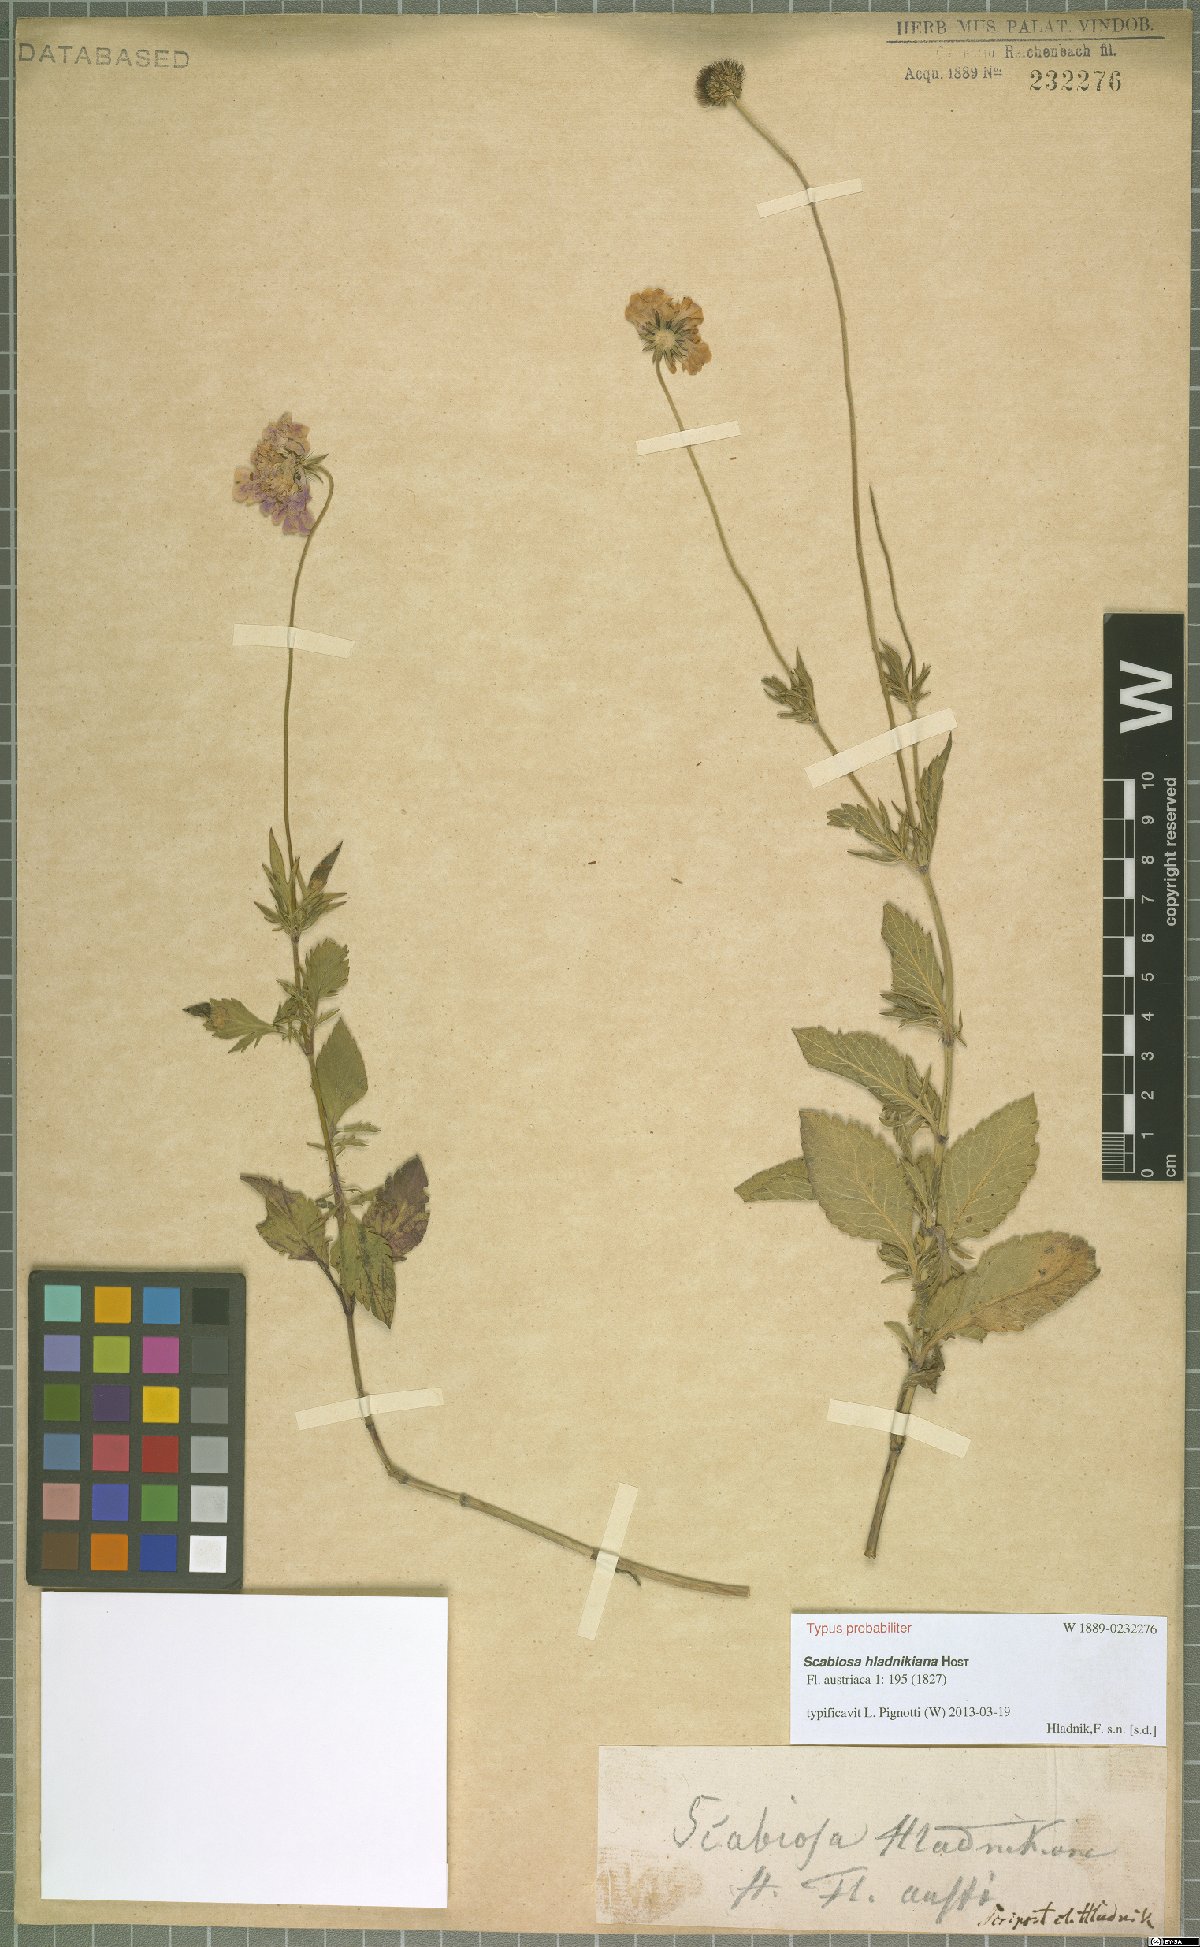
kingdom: Plantae
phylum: Tracheophyta
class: Magnoliopsida
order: Dipsacales
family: Caprifoliaceae
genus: Scabiosa
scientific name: Scabiosa hladnikiana
